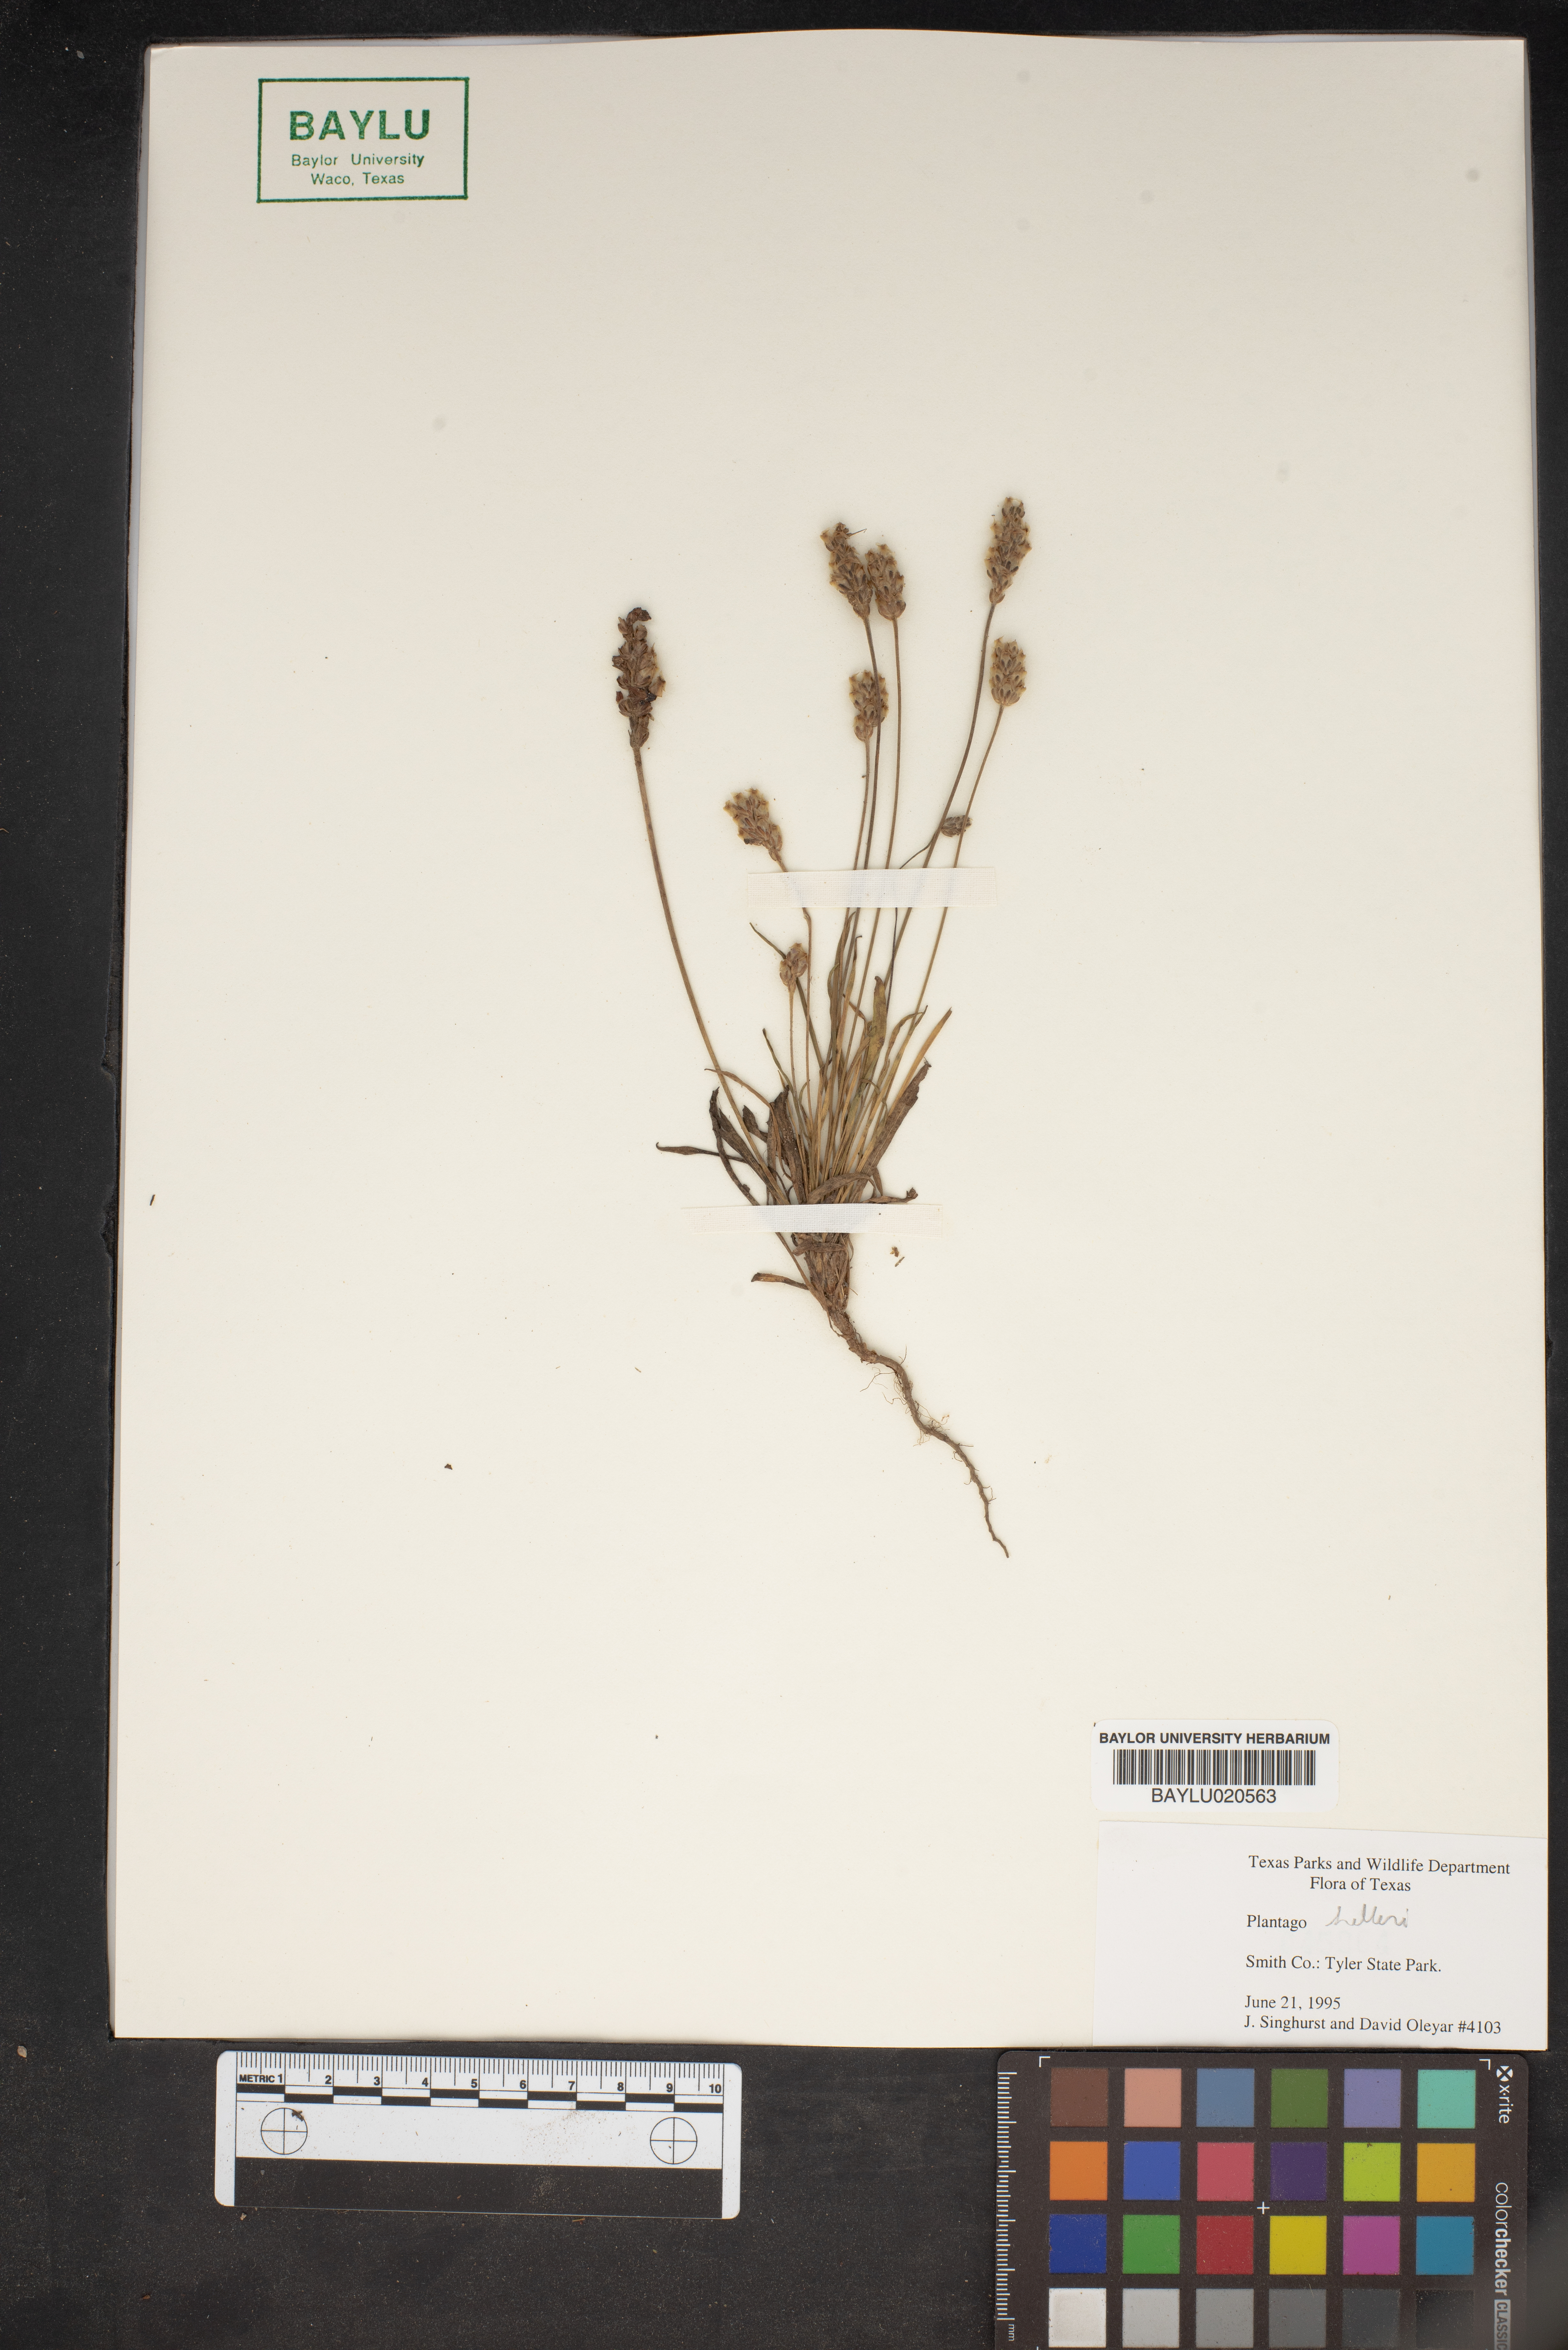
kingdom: Plantae
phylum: Tracheophyta
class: Magnoliopsida
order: Lamiales
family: Plantaginaceae
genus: Plantago
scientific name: Plantago helleri
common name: Heller's plantain
